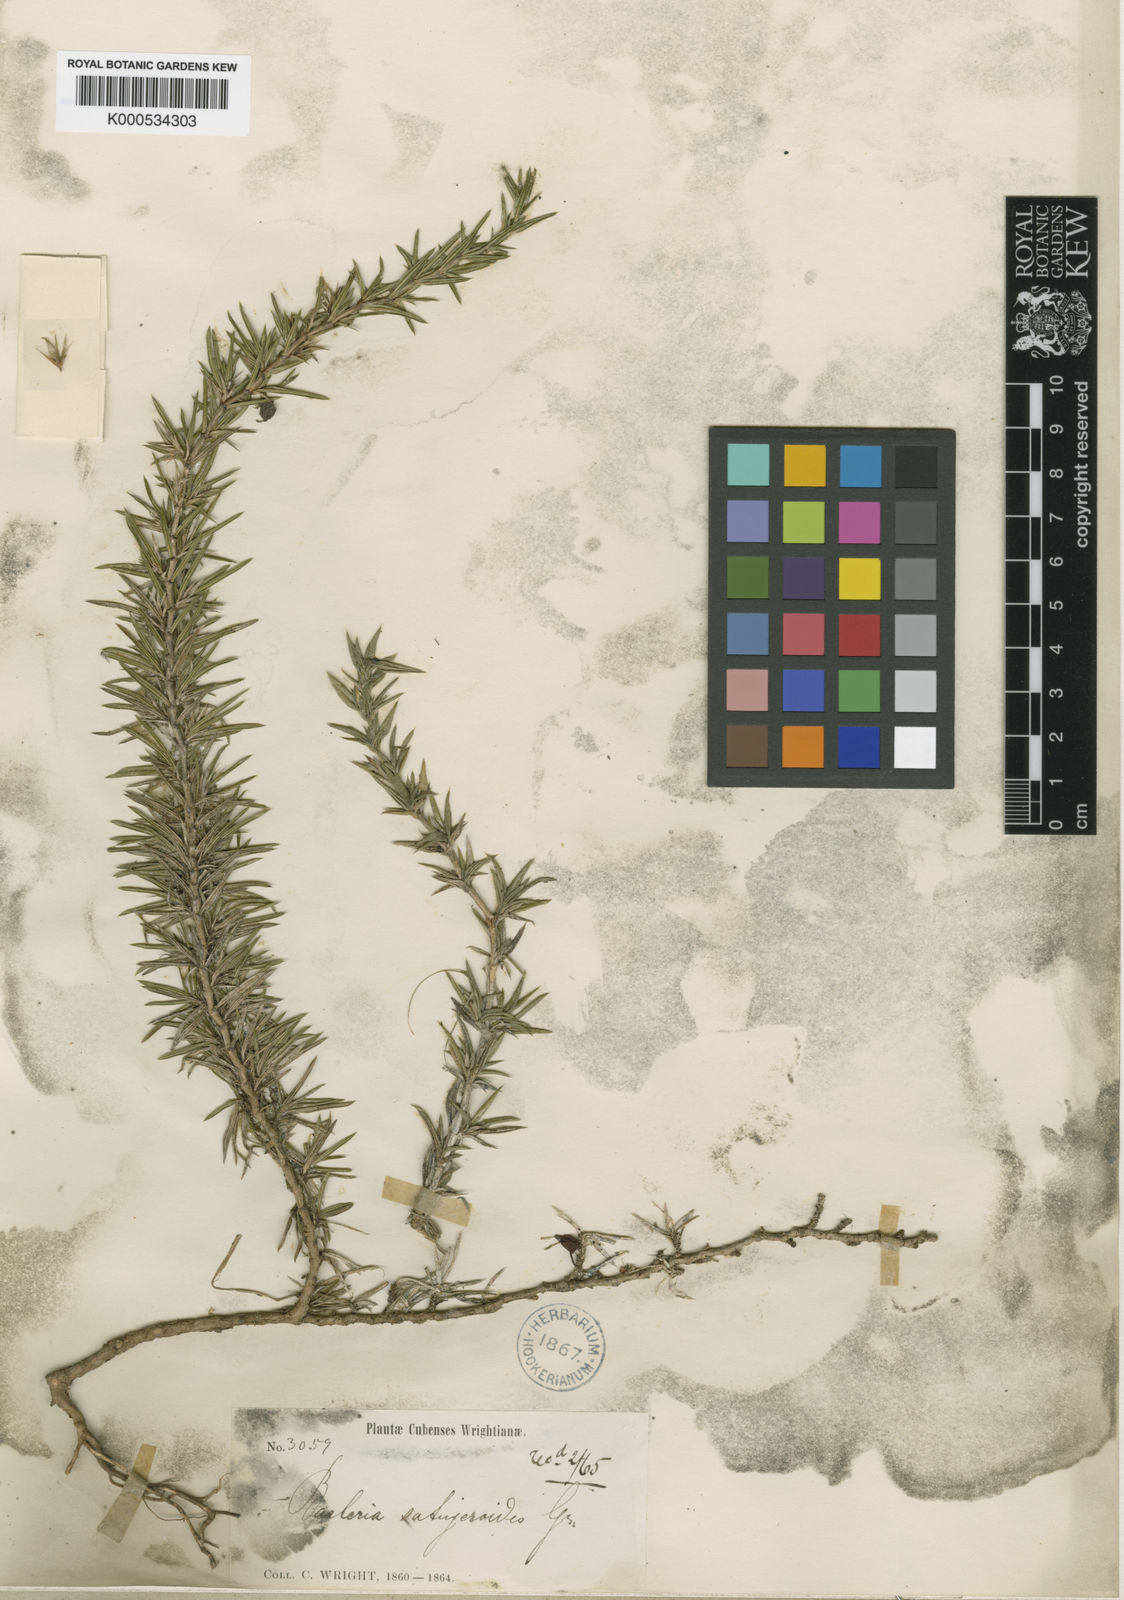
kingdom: Plantae
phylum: Tracheophyta
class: Magnoliopsida
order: Lamiales
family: Acanthaceae
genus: Barleriola
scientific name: Barleriola
